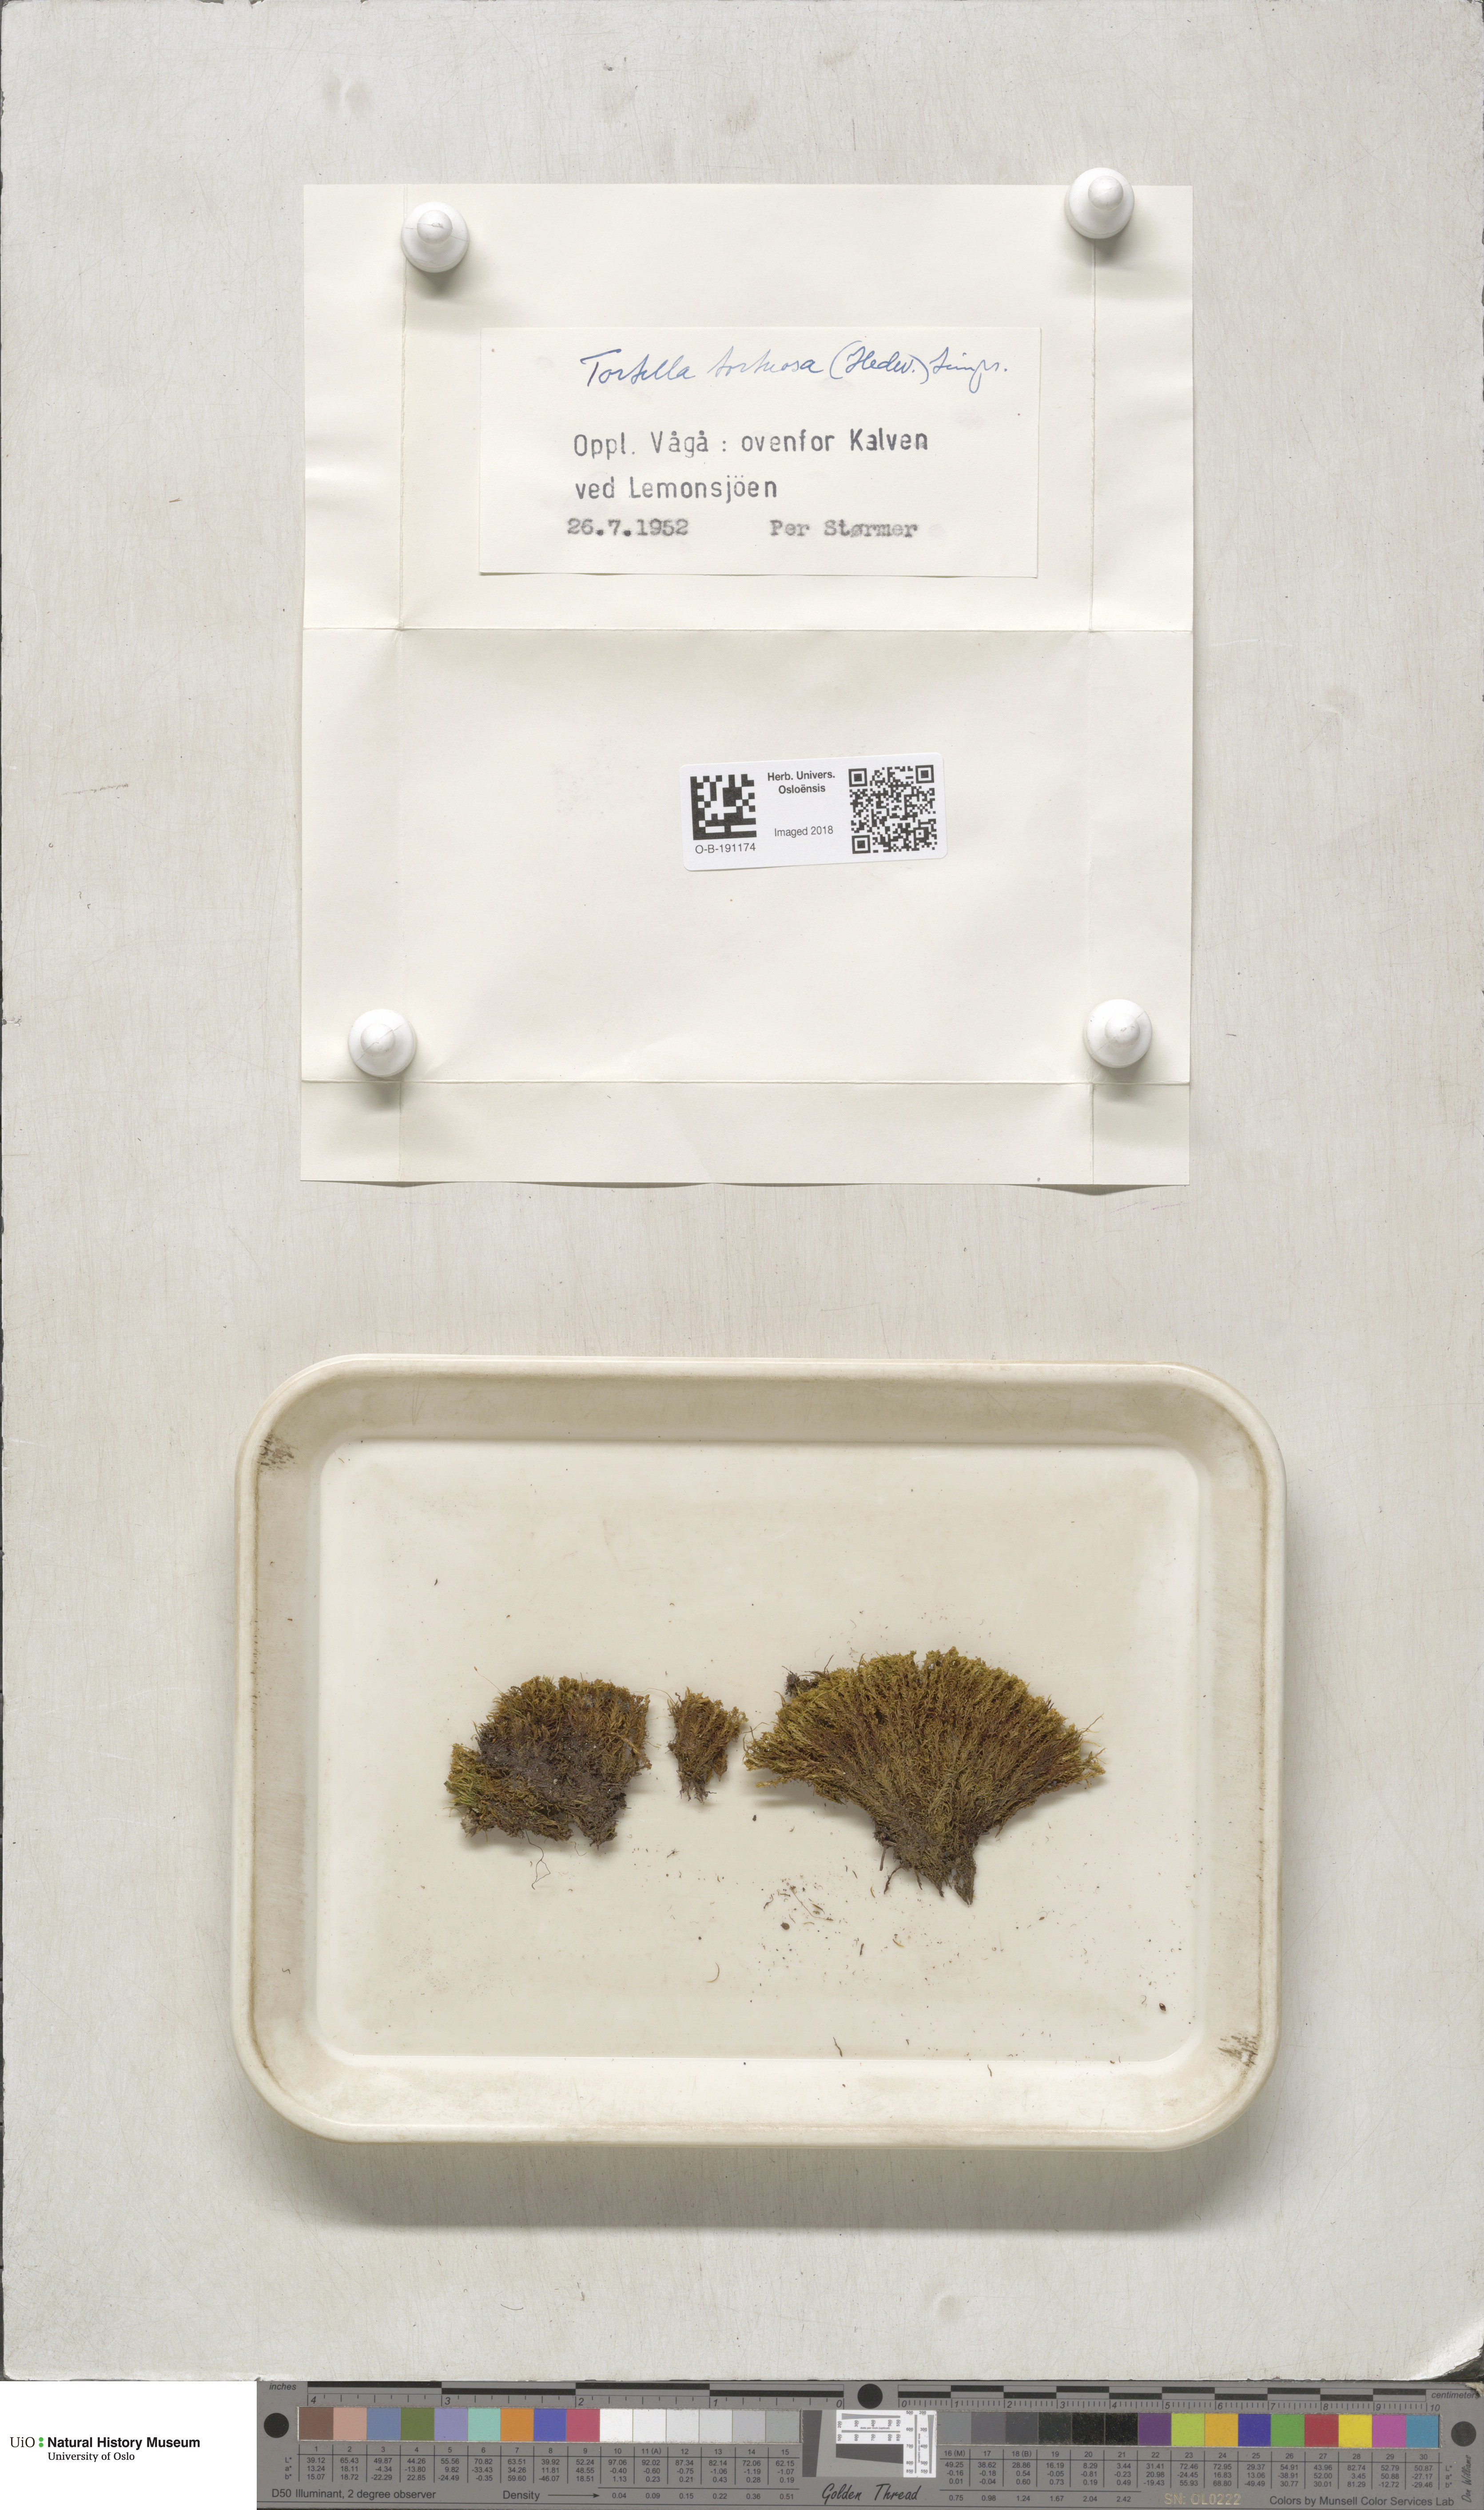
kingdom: Plantae
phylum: Bryophyta
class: Bryopsida
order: Pottiales
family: Pottiaceae
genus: Tortella
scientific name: Tortella tortuosa
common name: Frizzled crisp moss
